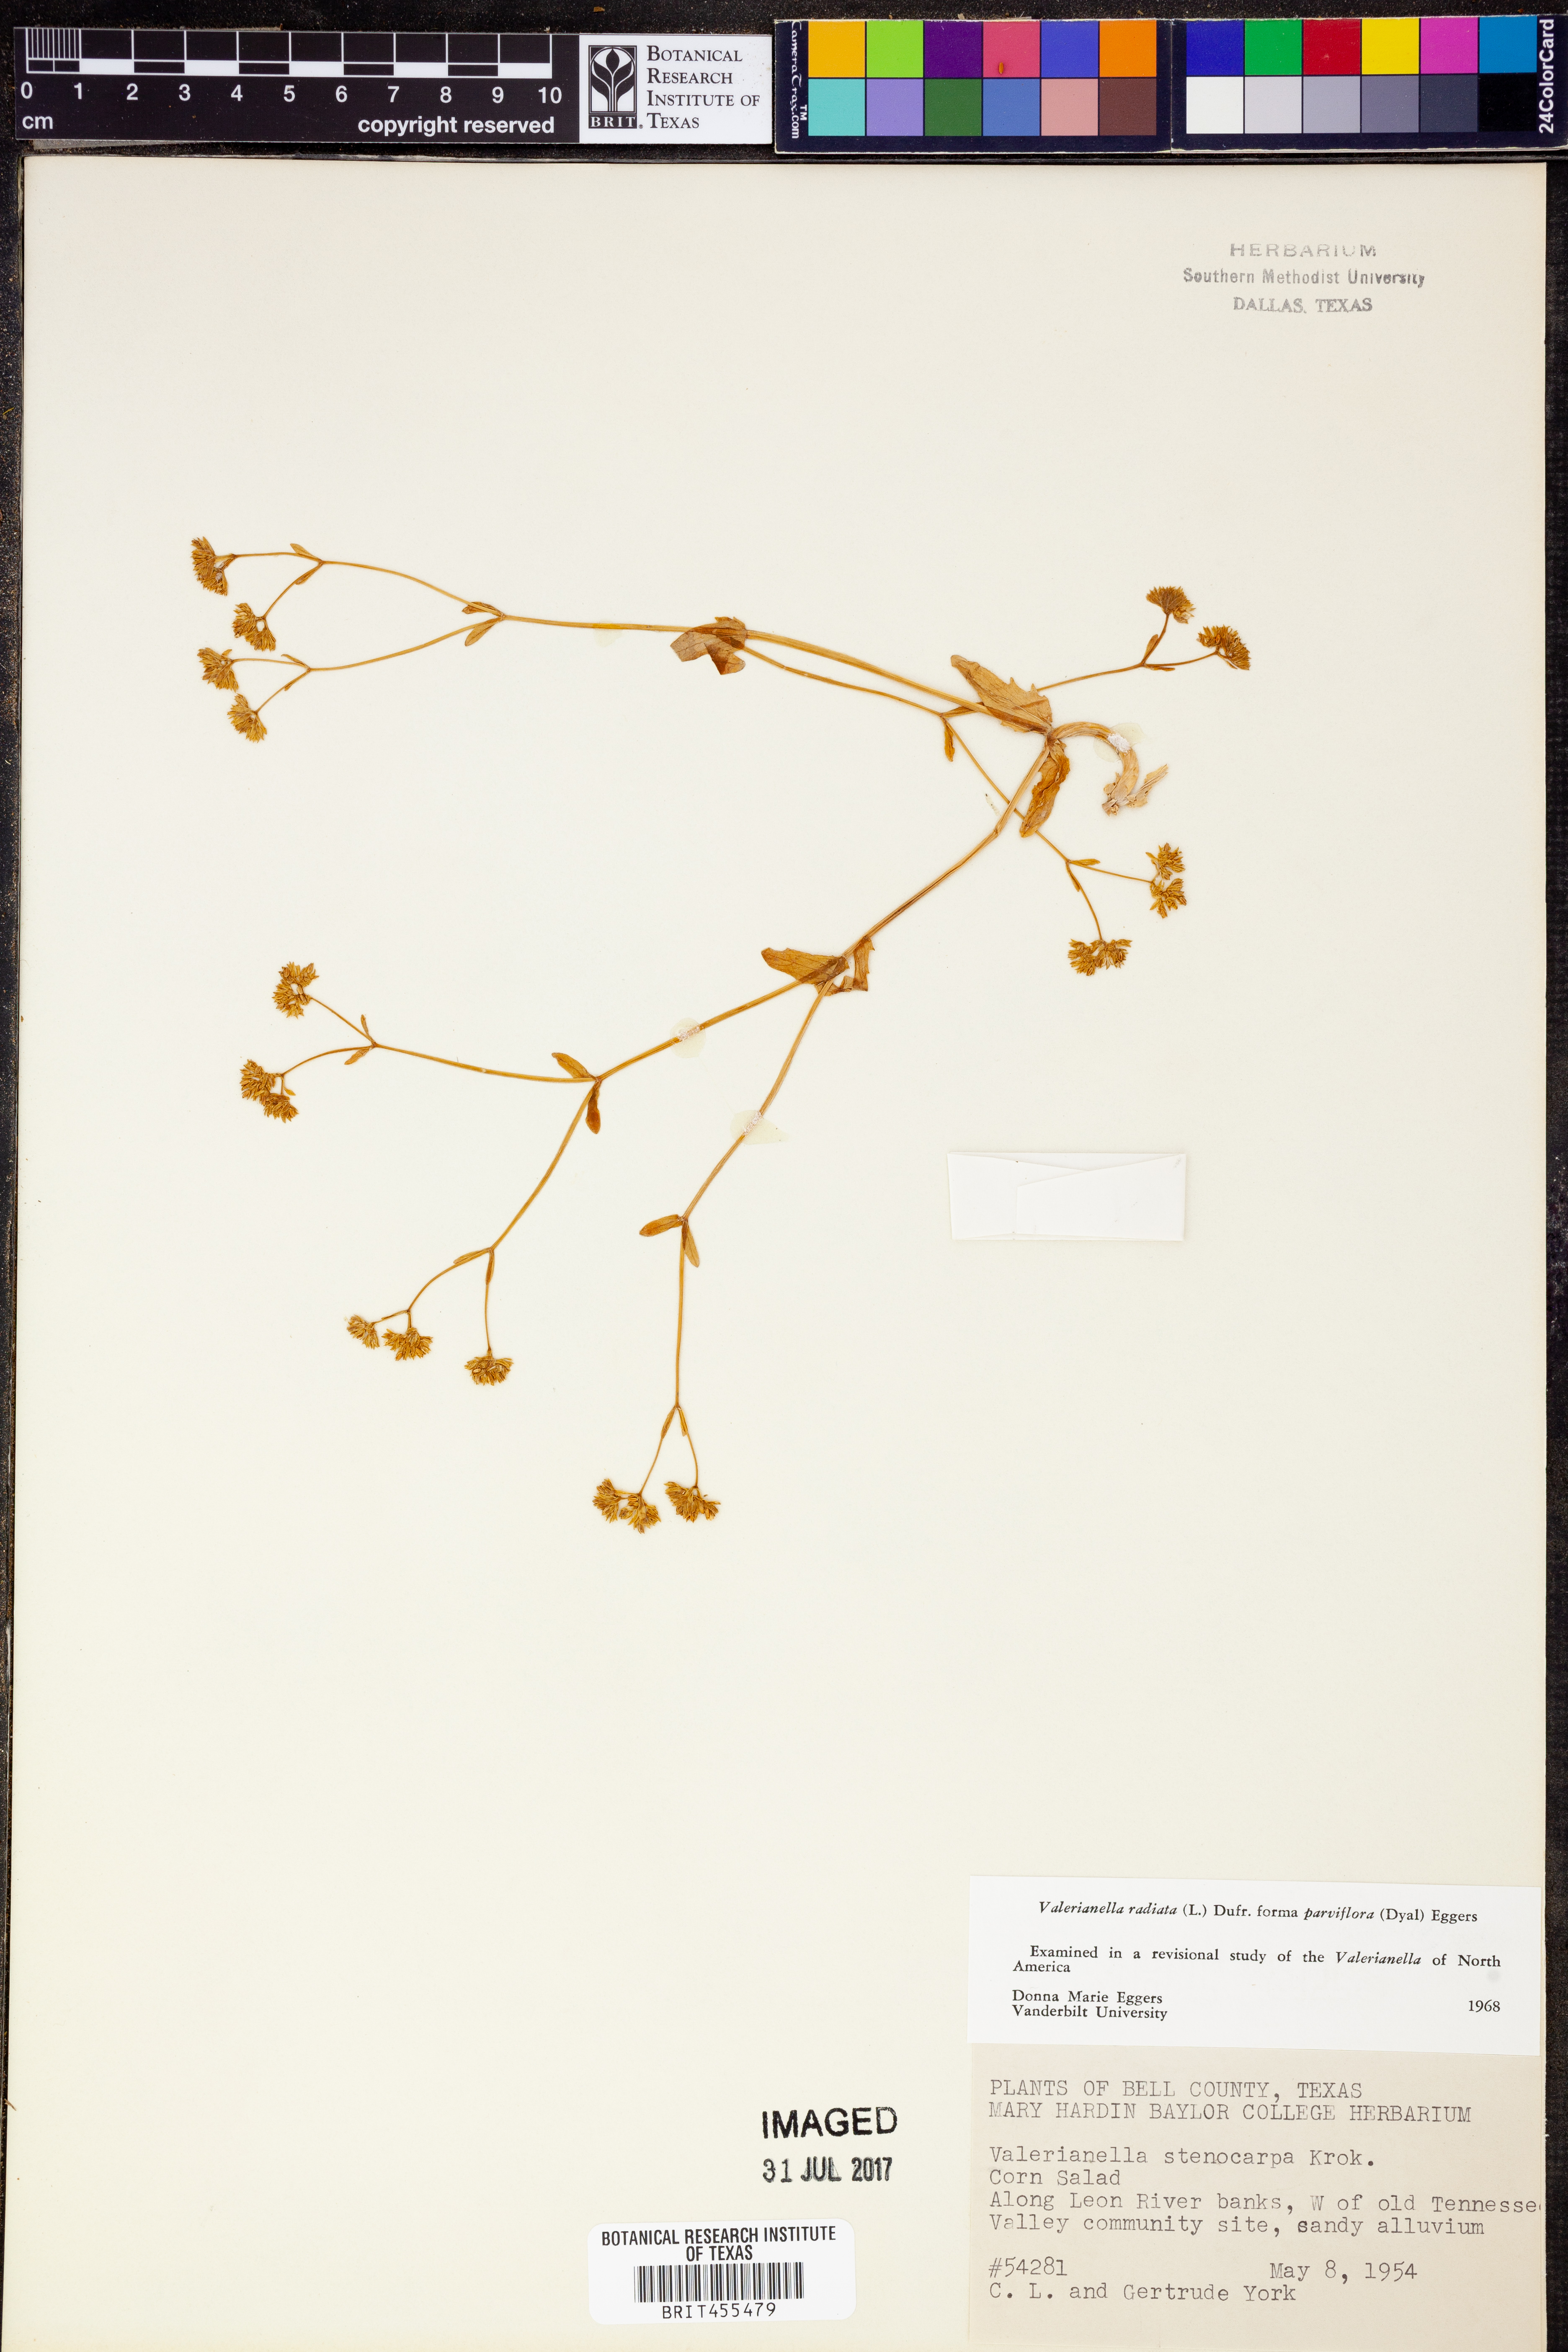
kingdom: Plantae
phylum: Tracheophyta
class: Magnoliopsida
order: Dipsacales
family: Caprifoliaceae
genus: Valerianella
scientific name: Valerianella radiata
